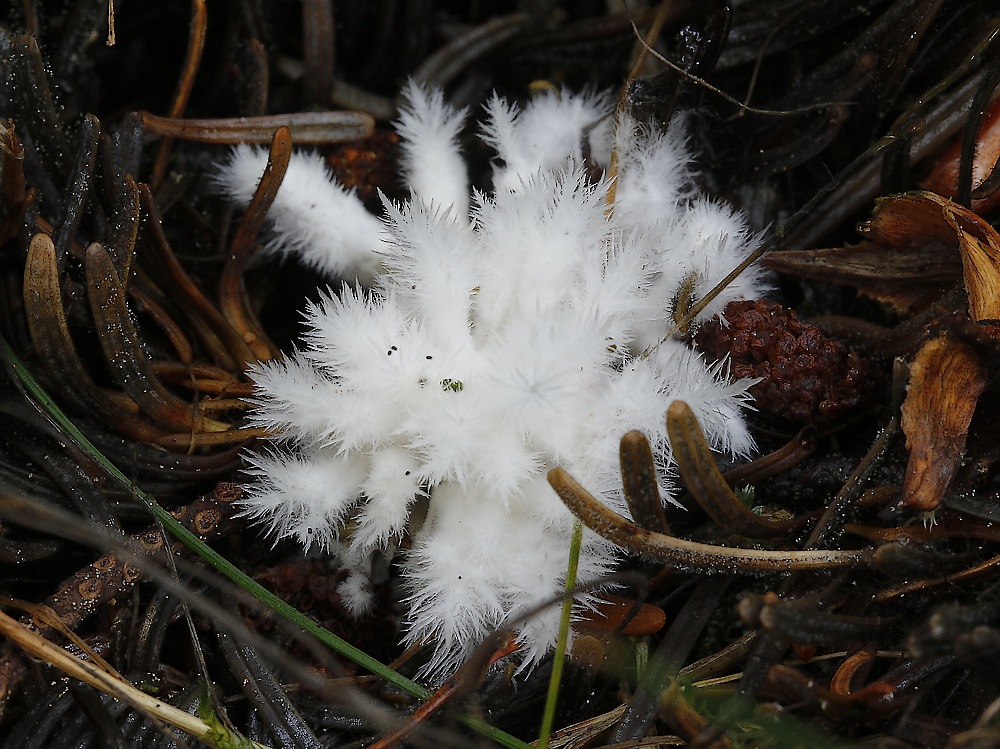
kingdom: Fungi
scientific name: Fungi
